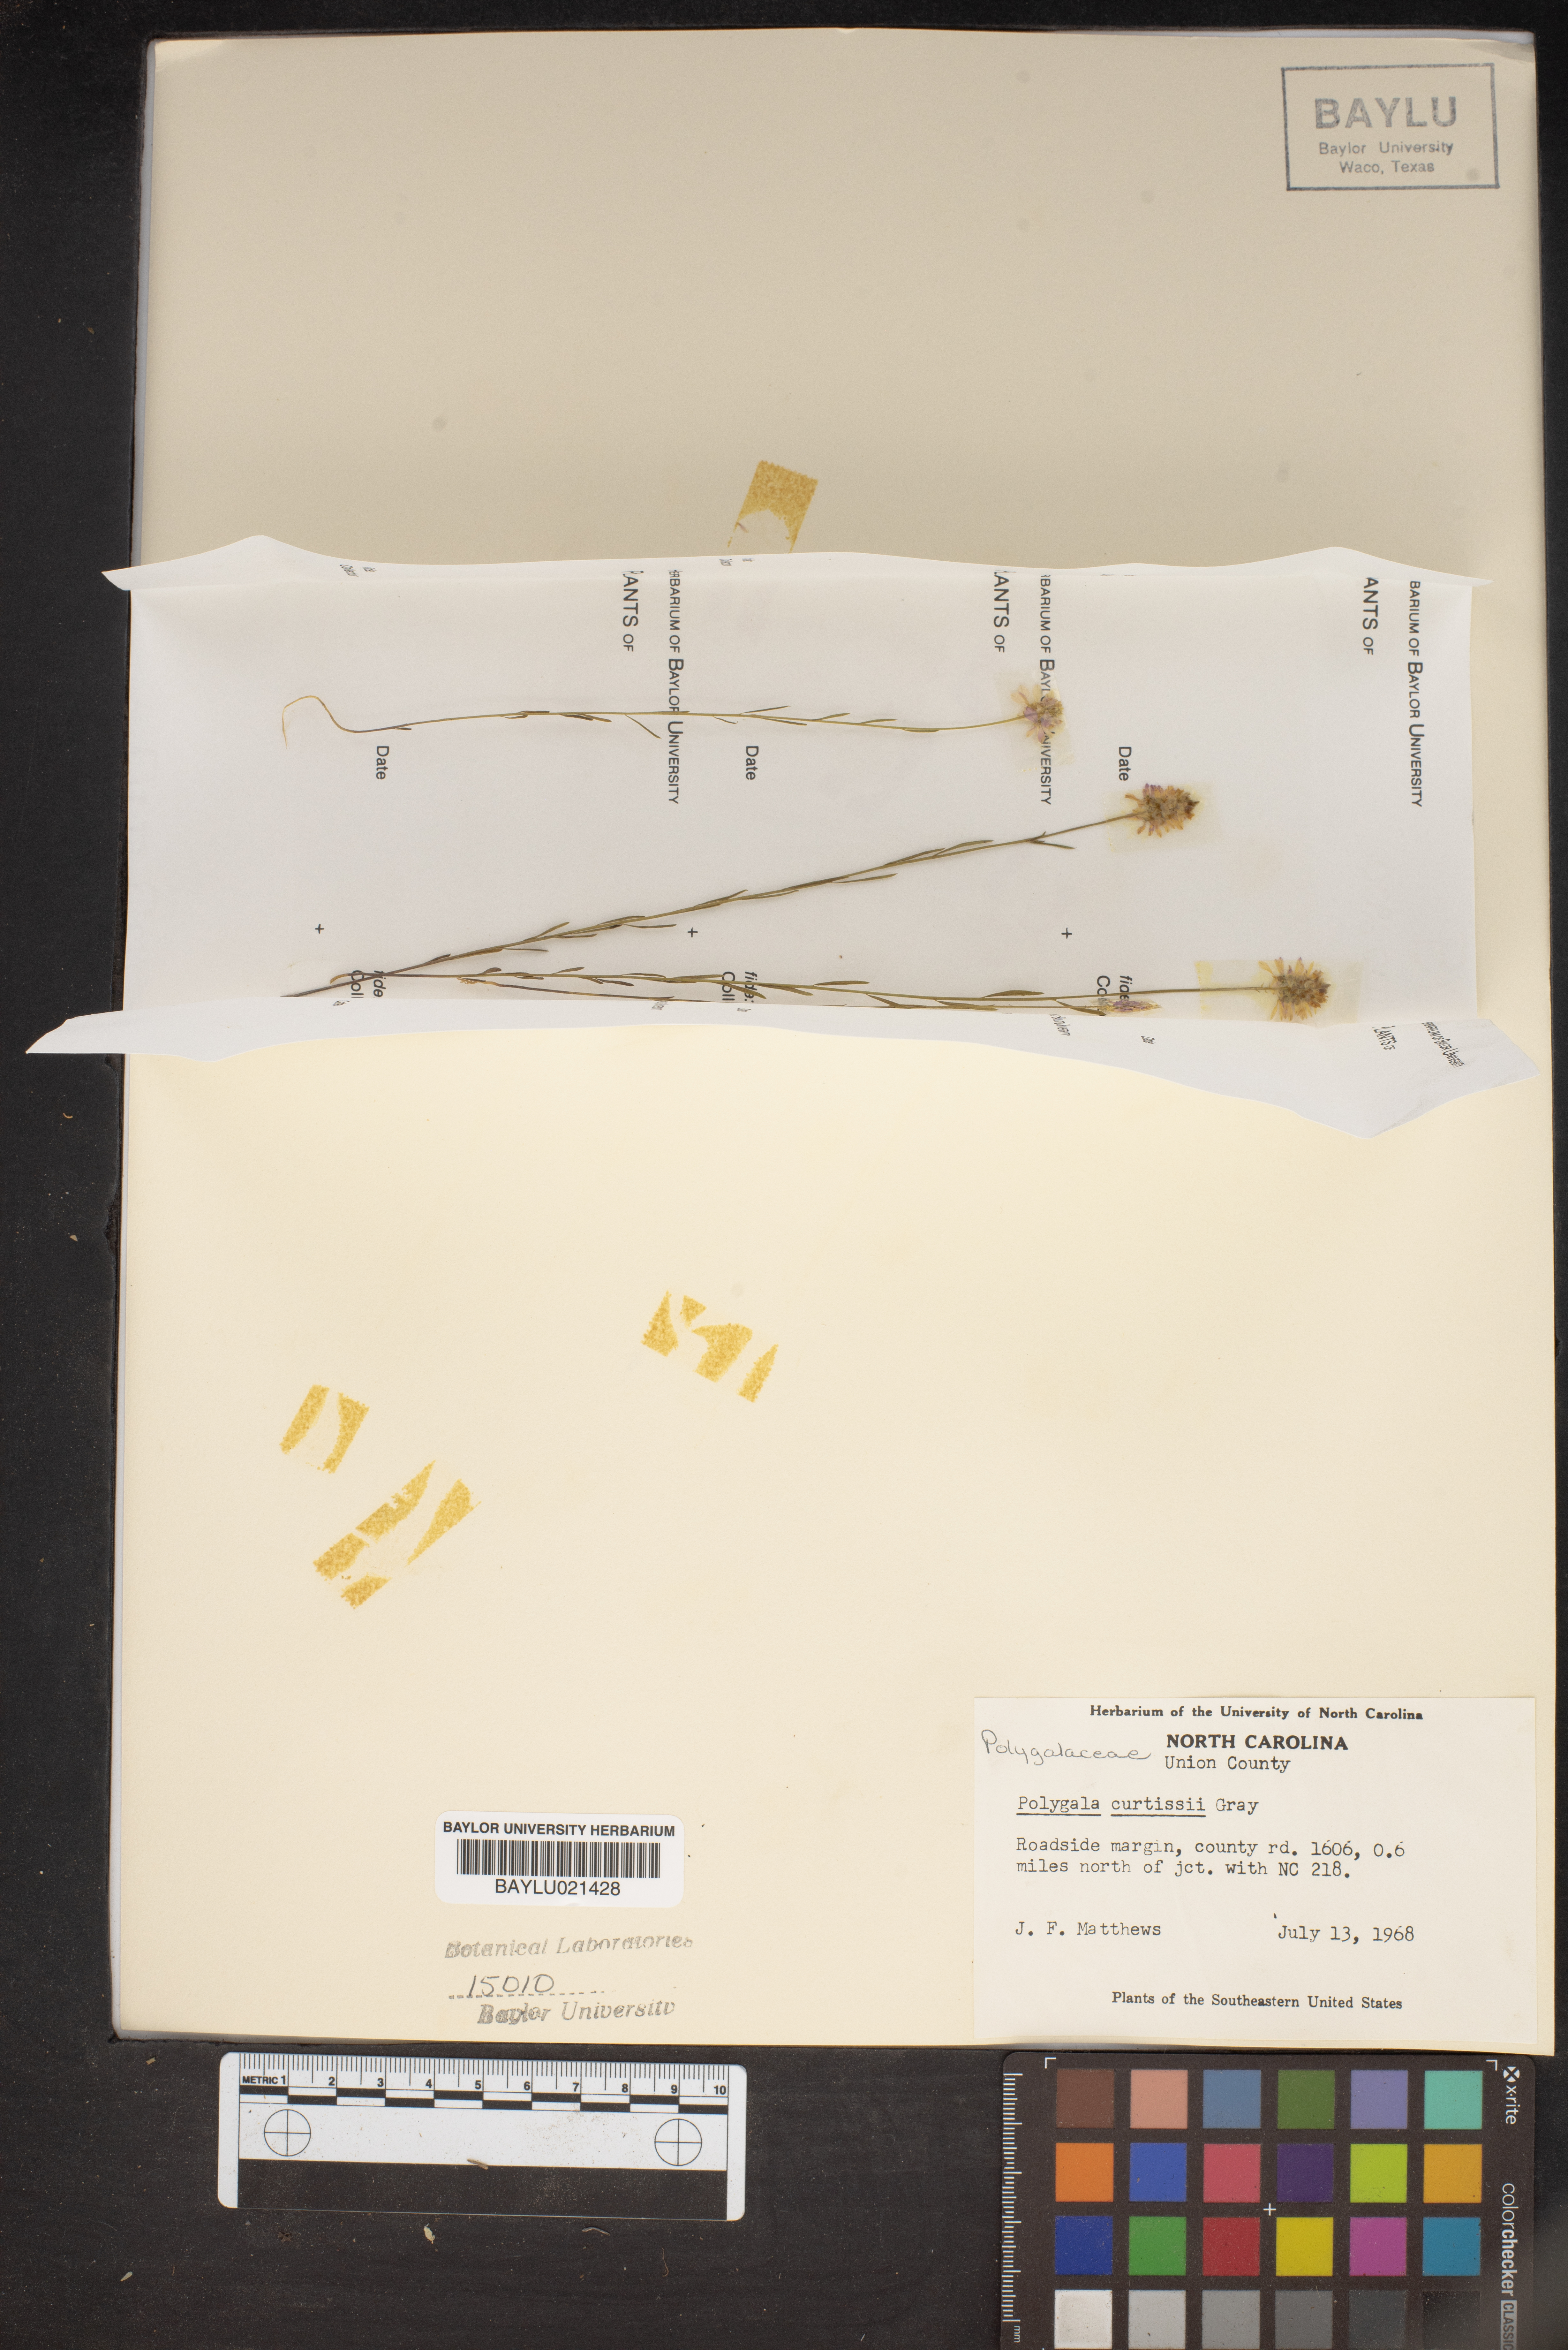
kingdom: Plantae
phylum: Tracheophyta
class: Magnoliopsida
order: Fabales
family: Polygalaceae
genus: Polygala
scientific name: Polygala curtissii
